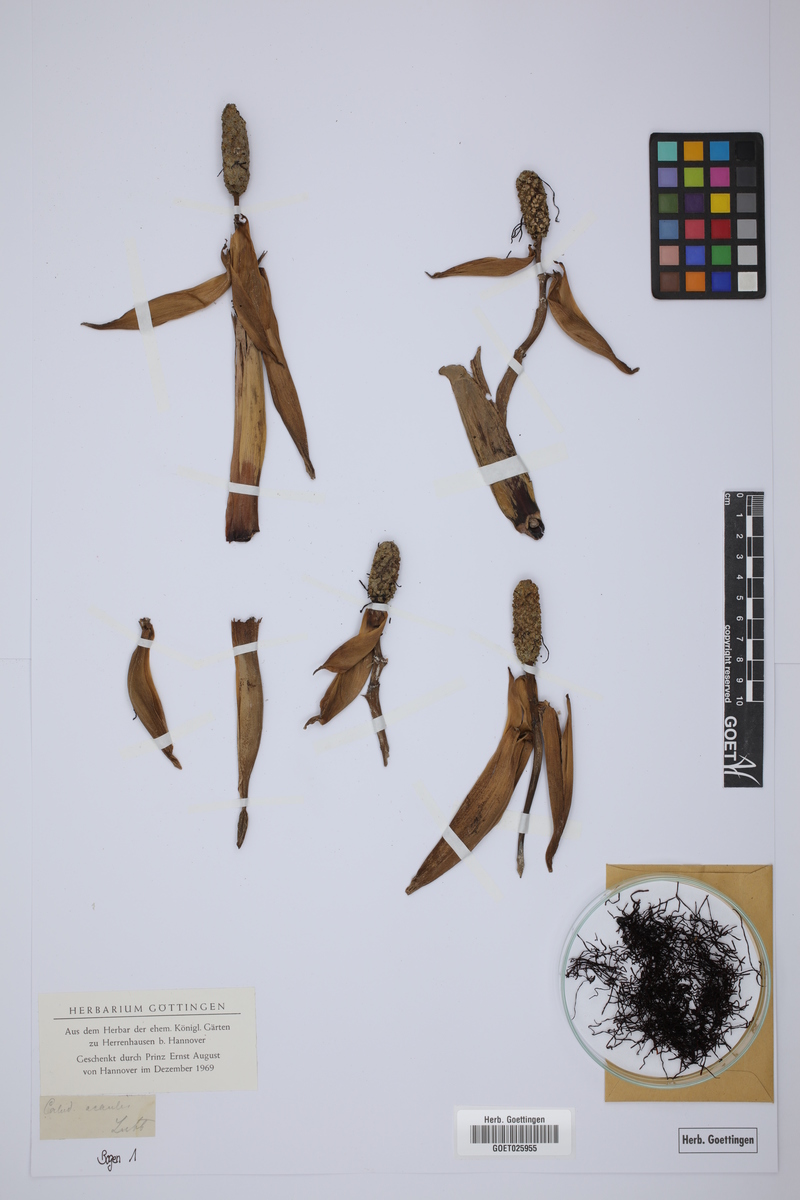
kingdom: Plantae
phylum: Tracheophyta
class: Liliopsida
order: Pandanales
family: Cyclanthaceae
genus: Carludovica
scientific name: Carludovica
